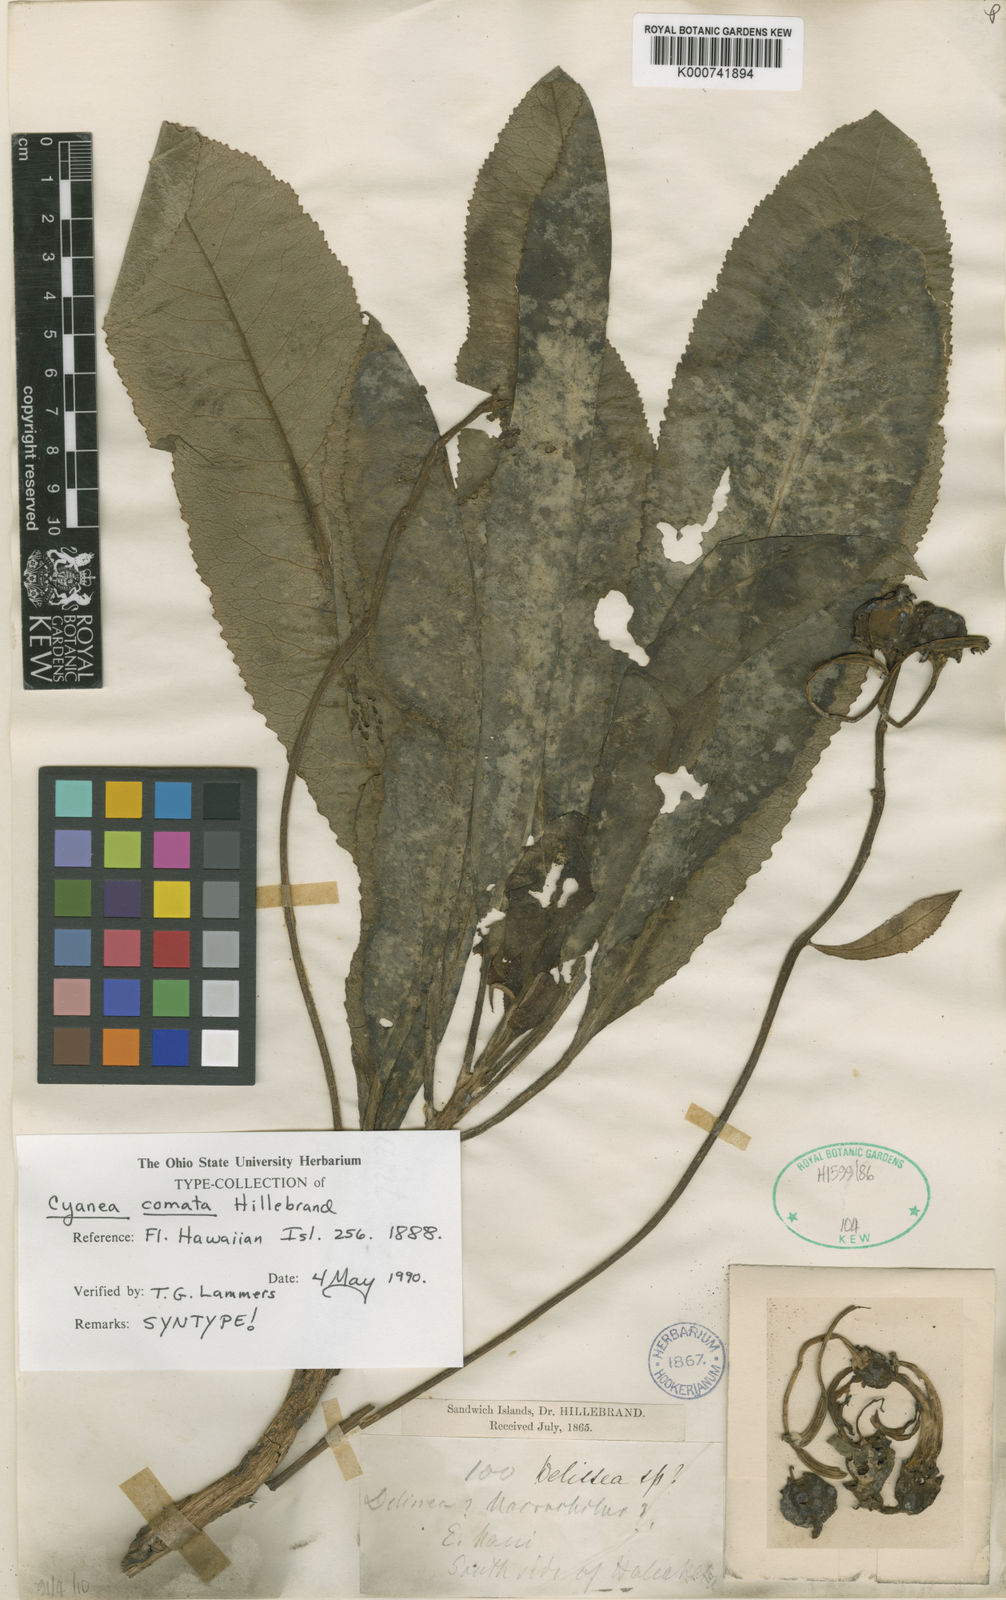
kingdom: Plantae
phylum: Tracheophyta
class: Magnoliopsida
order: Asterales
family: Campanulaceae
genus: Cyanea
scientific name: Cyanea comata
